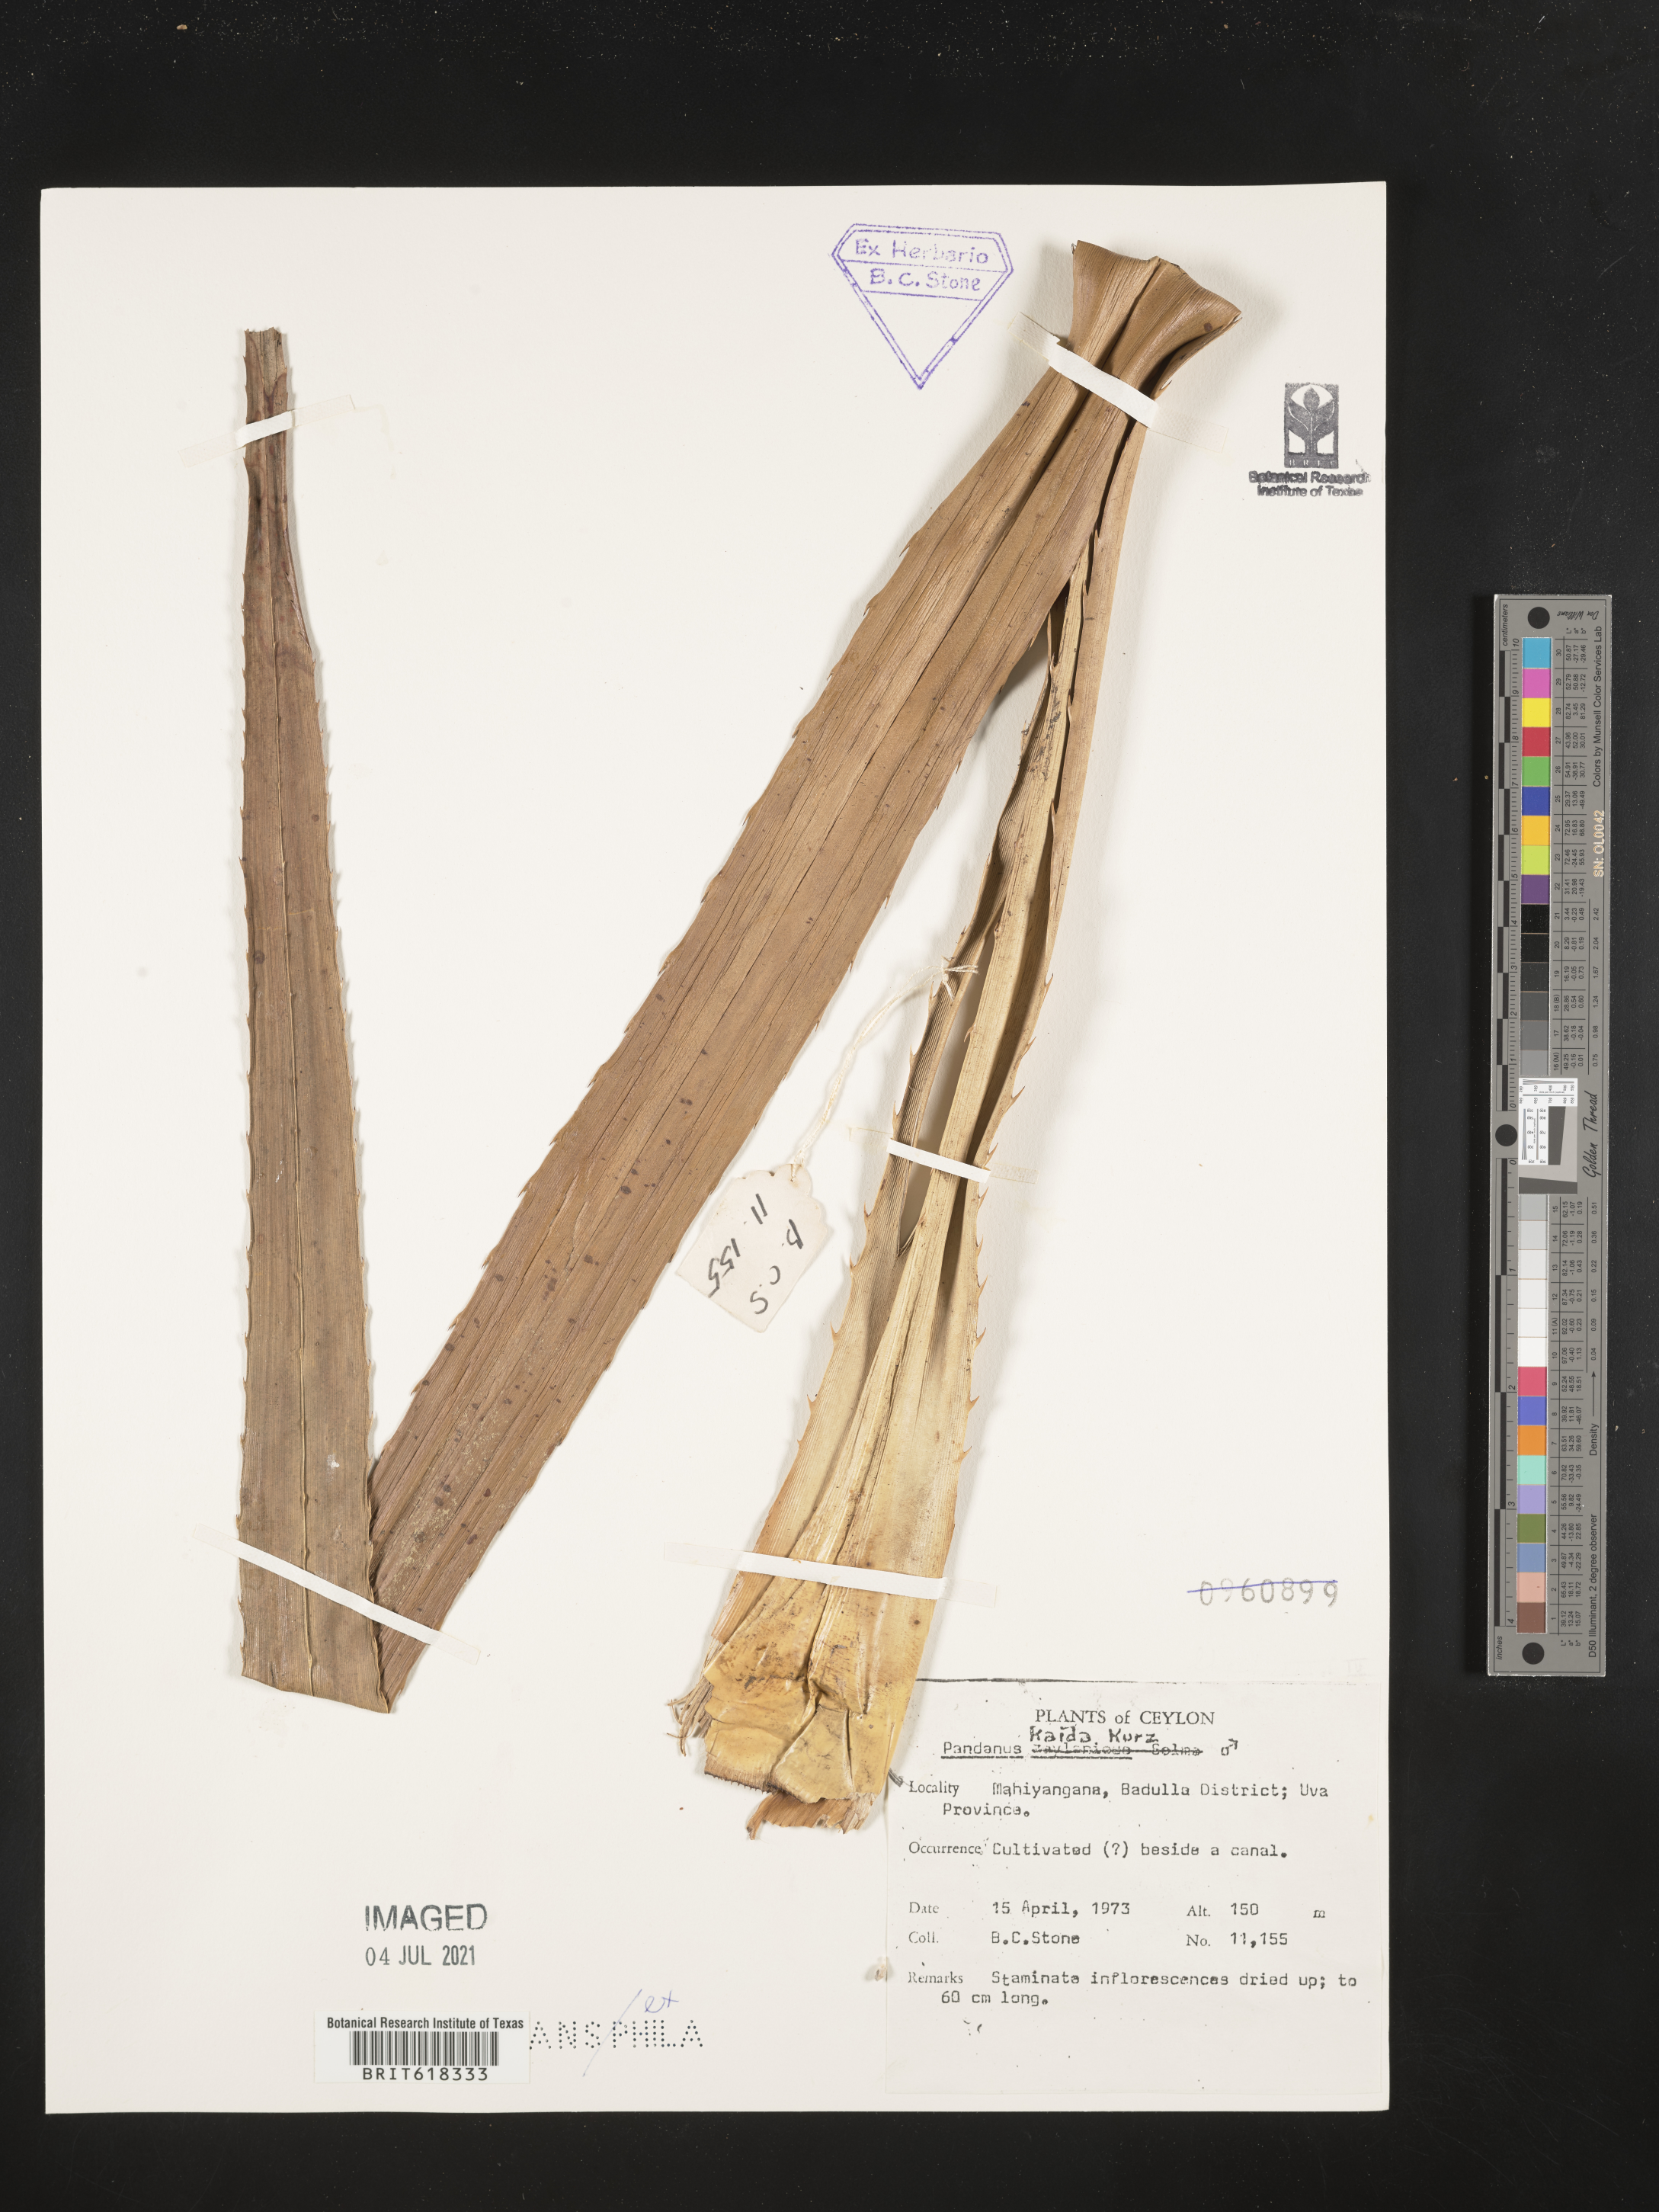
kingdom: Plantae
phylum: Tracheophyta
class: Liliopsida
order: Pandanales
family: Pandanaceae
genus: Pandanus
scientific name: Pandanus kaida
